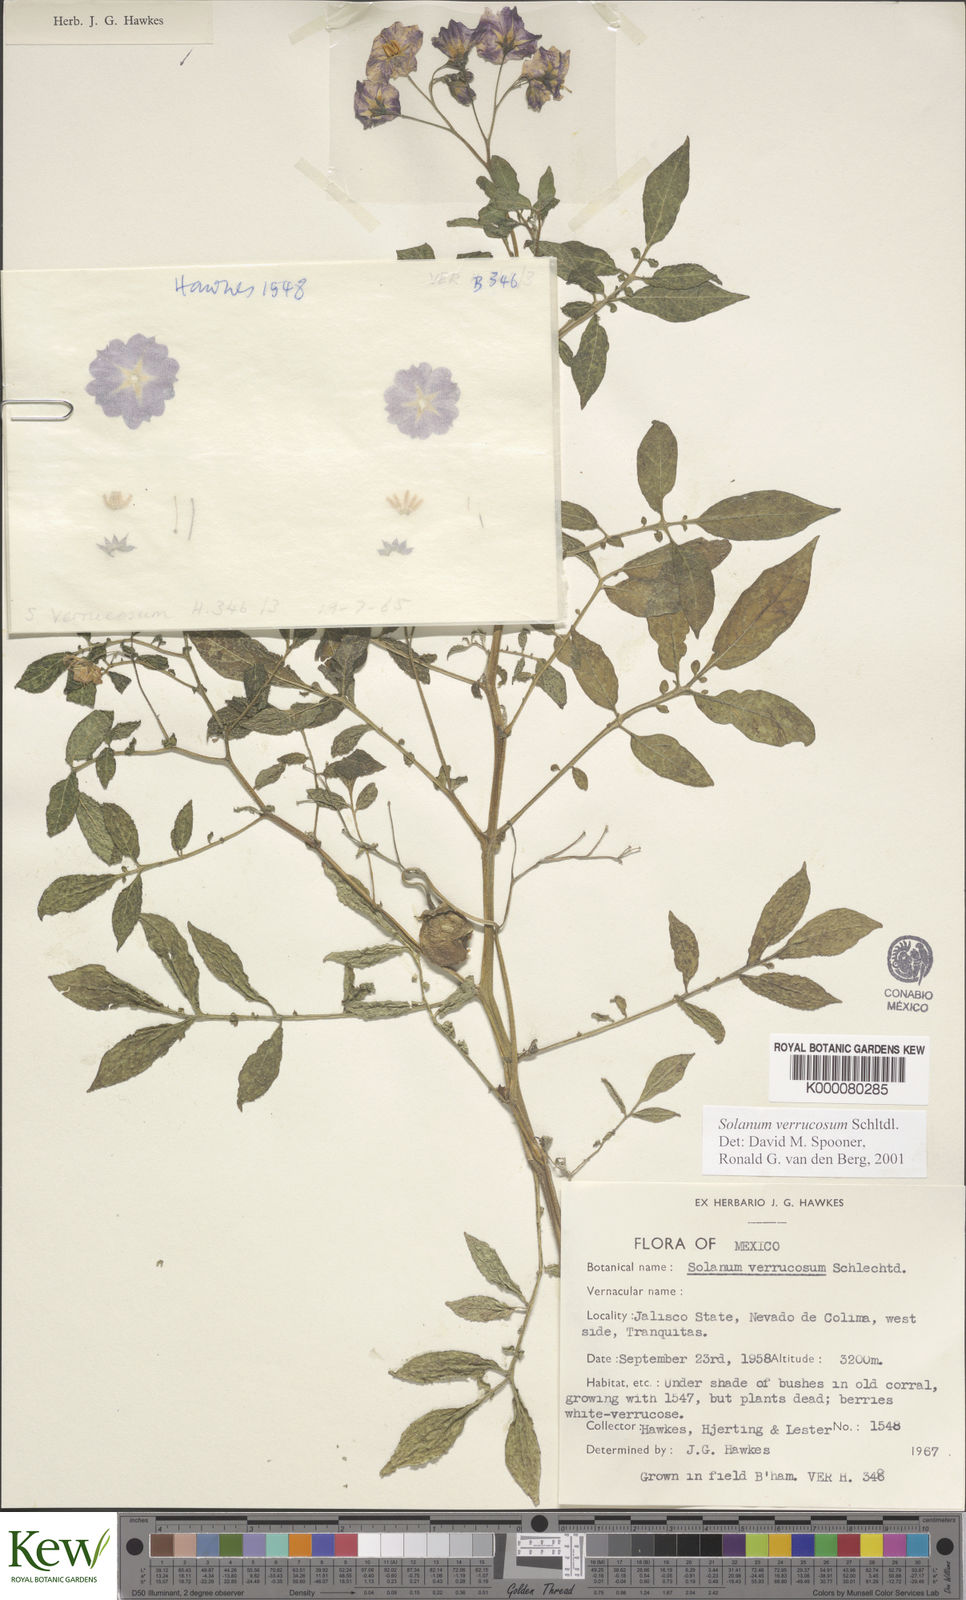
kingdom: Plantae
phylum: Tracheophyta
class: Magnoliopsida
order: Solanales
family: Solanaceae
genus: Solanum
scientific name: Solanum verrucosum
